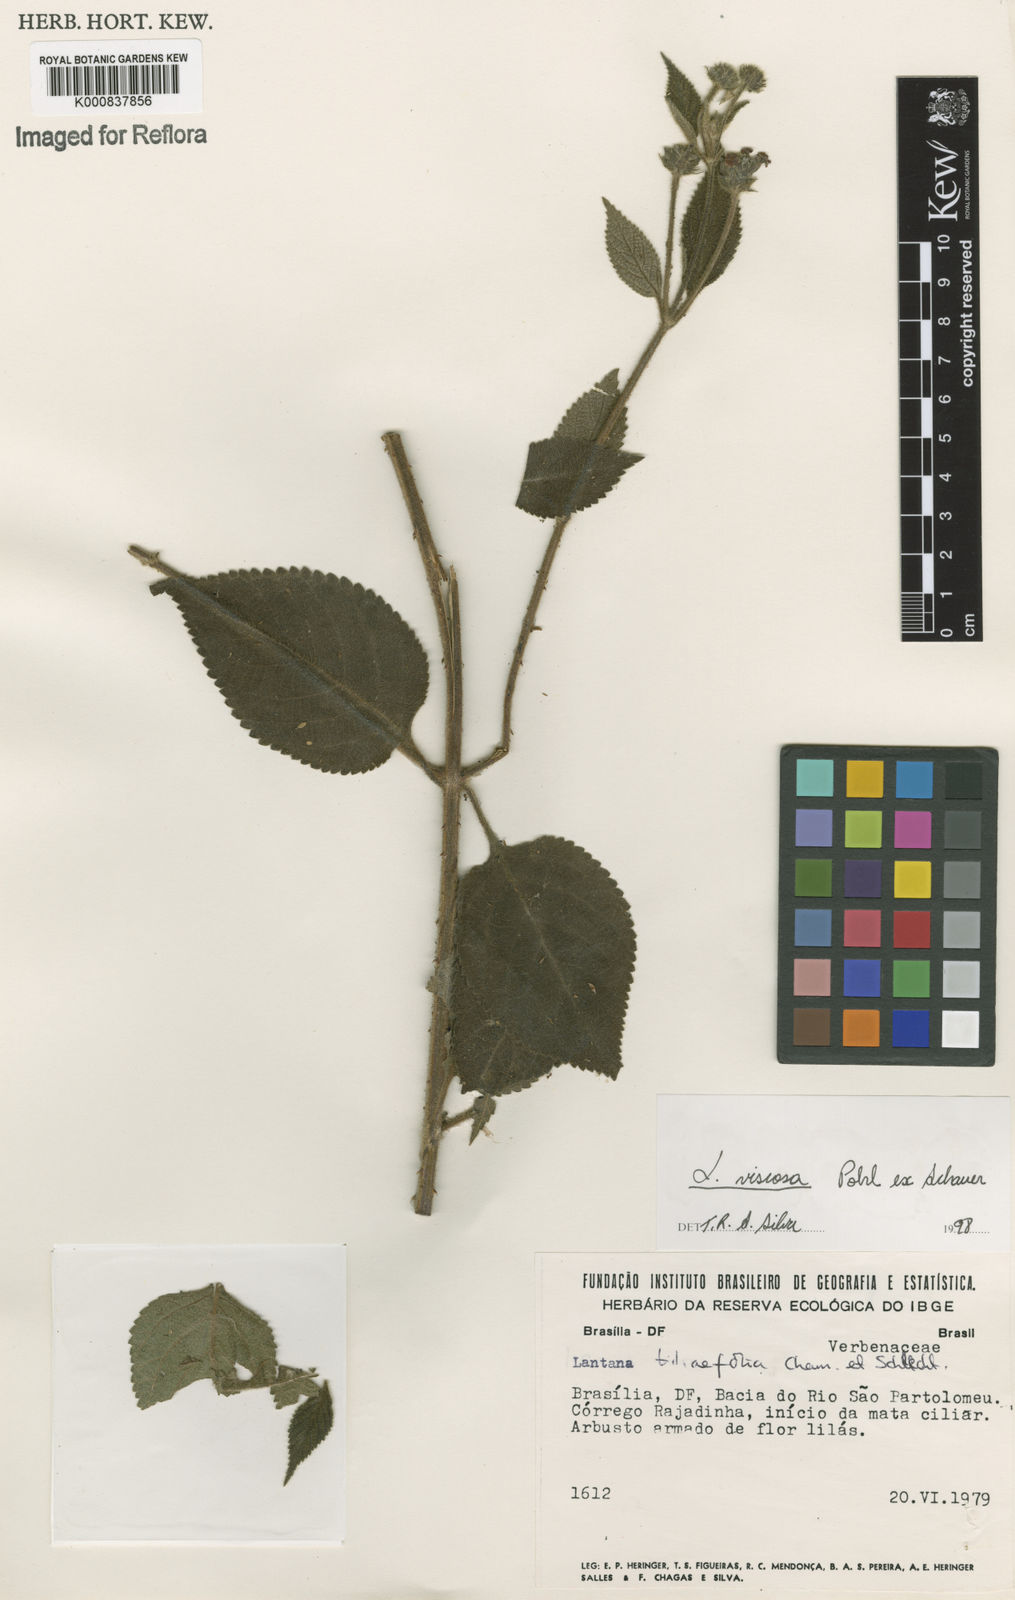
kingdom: Plantae
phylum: Tracheophyta
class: Magnoliopsida
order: Lamiales
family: Verbenaceae
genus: Lantana
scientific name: Lantana viscosa
